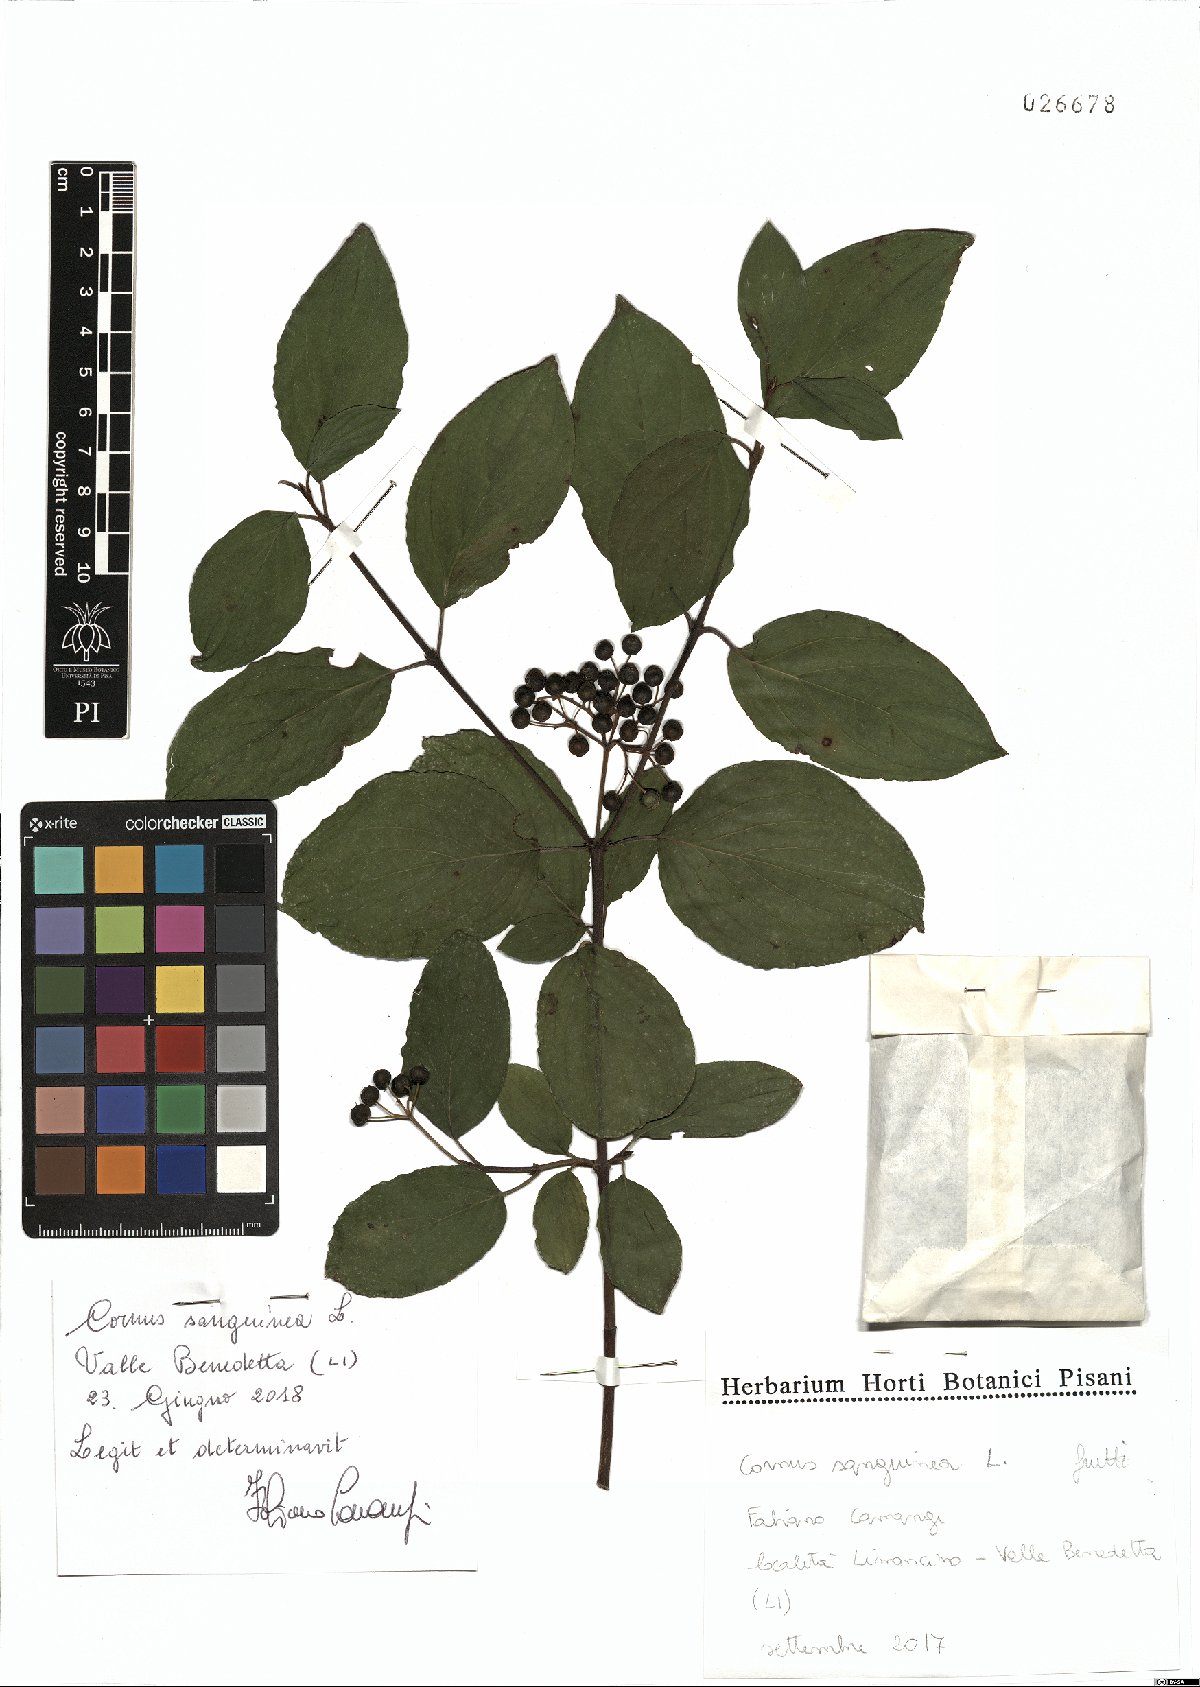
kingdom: Plantae
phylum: Tracheophyta
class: Magnoliopsida
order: Cornales
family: Cornaceae
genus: Cornus
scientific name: Cornus sanguinea
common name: Dogwood
